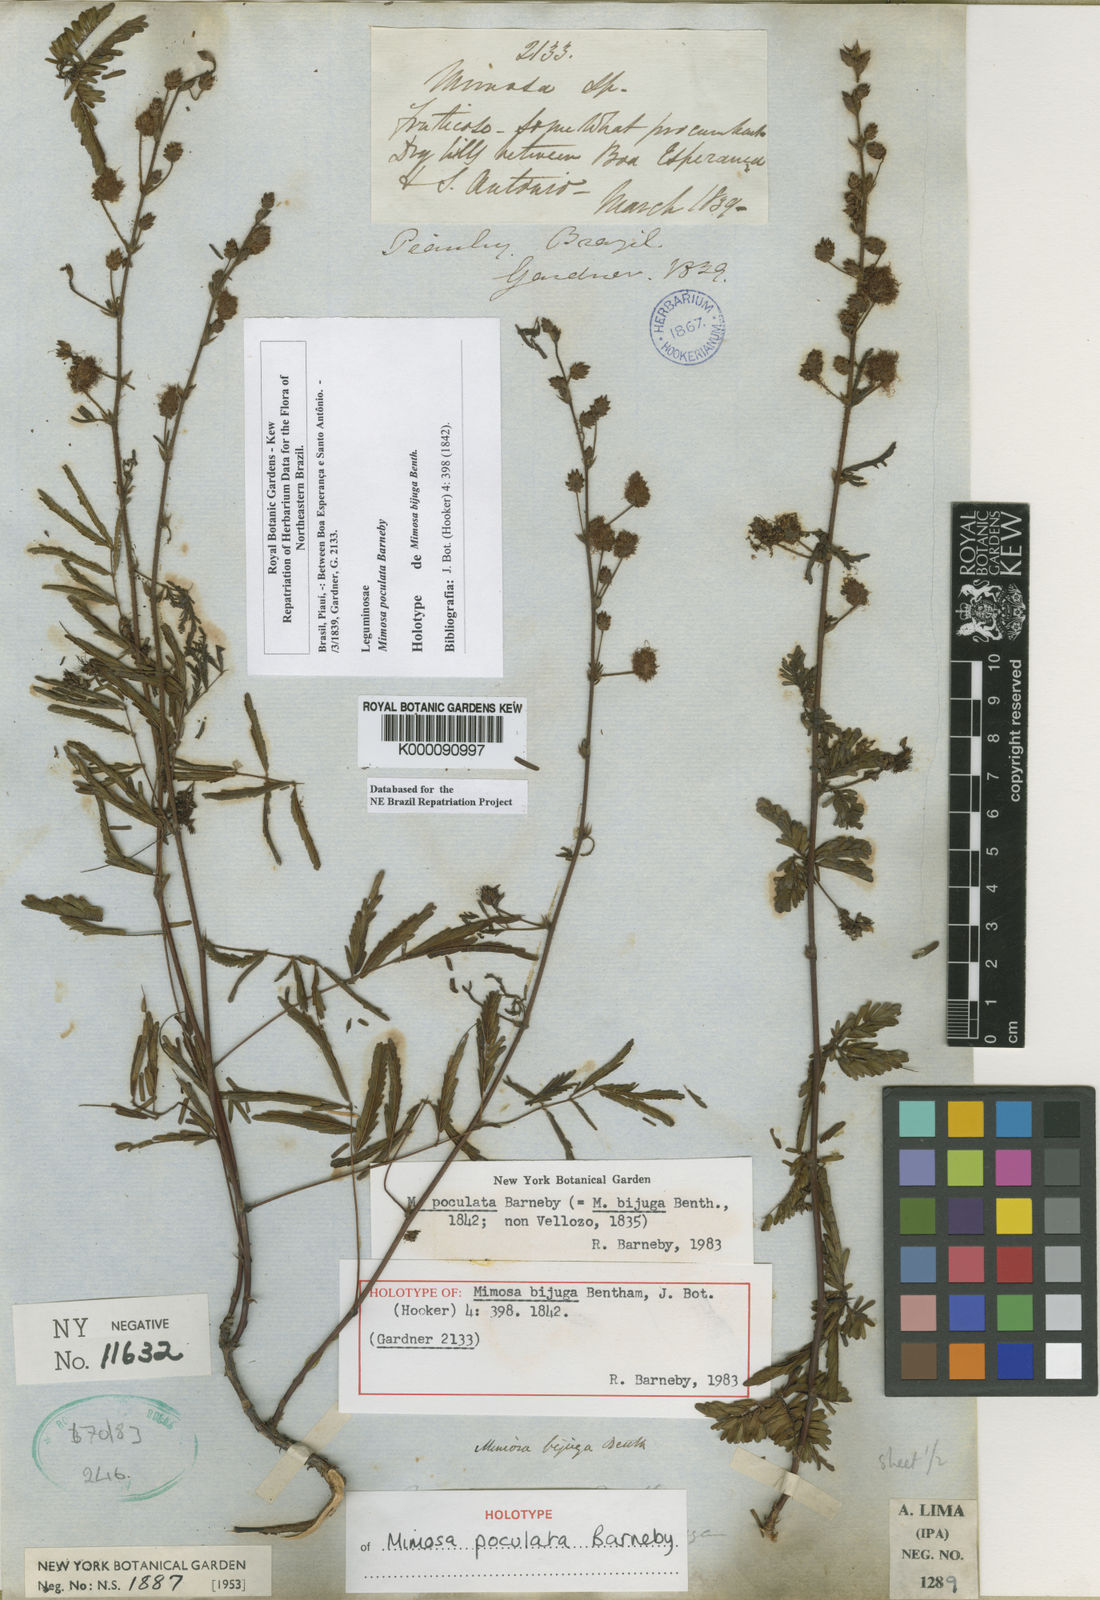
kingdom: Plantae
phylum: Tracheophyta
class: Magnoliopsida
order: Fabales
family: Fabaceae
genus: Mimosa
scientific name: Mimosa poculata
